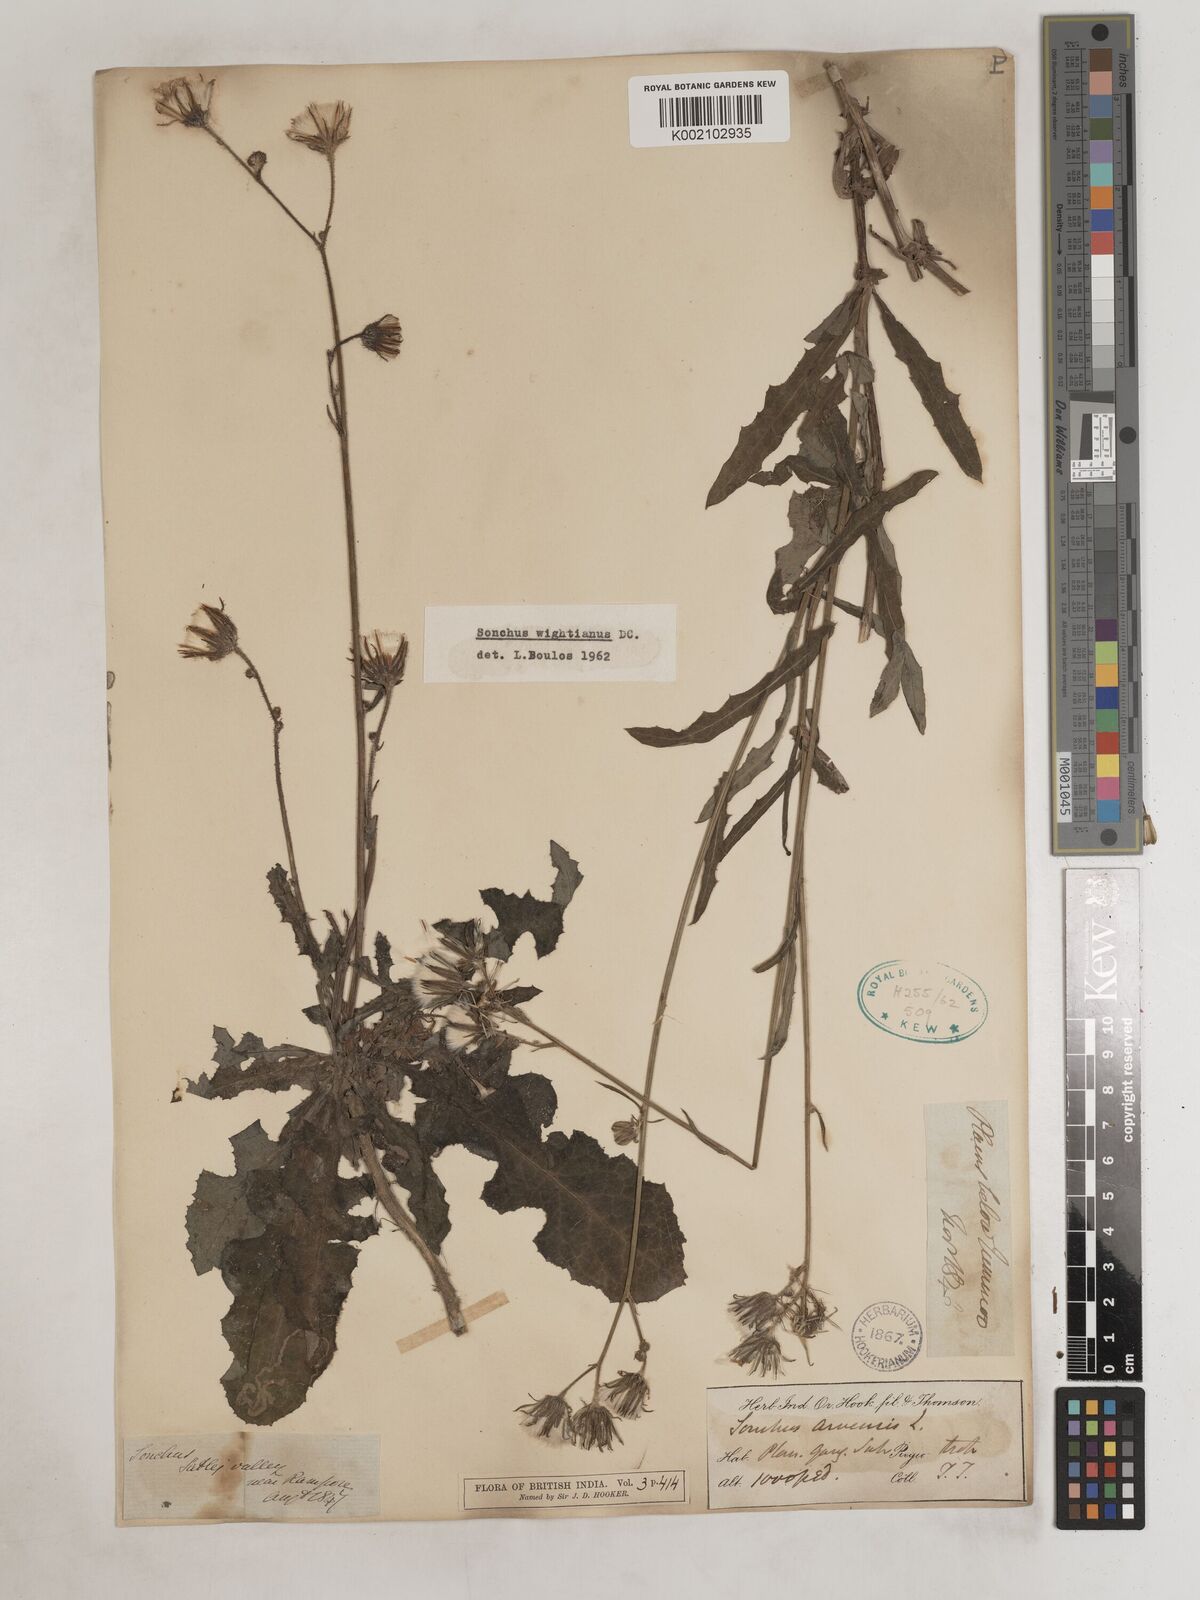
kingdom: Plantae
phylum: Tracheophyta
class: Magnoliopsida
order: Asterales
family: Asteraceae
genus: Sonchus
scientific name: Sonchus arvensis
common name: Perennial sow-thistle
